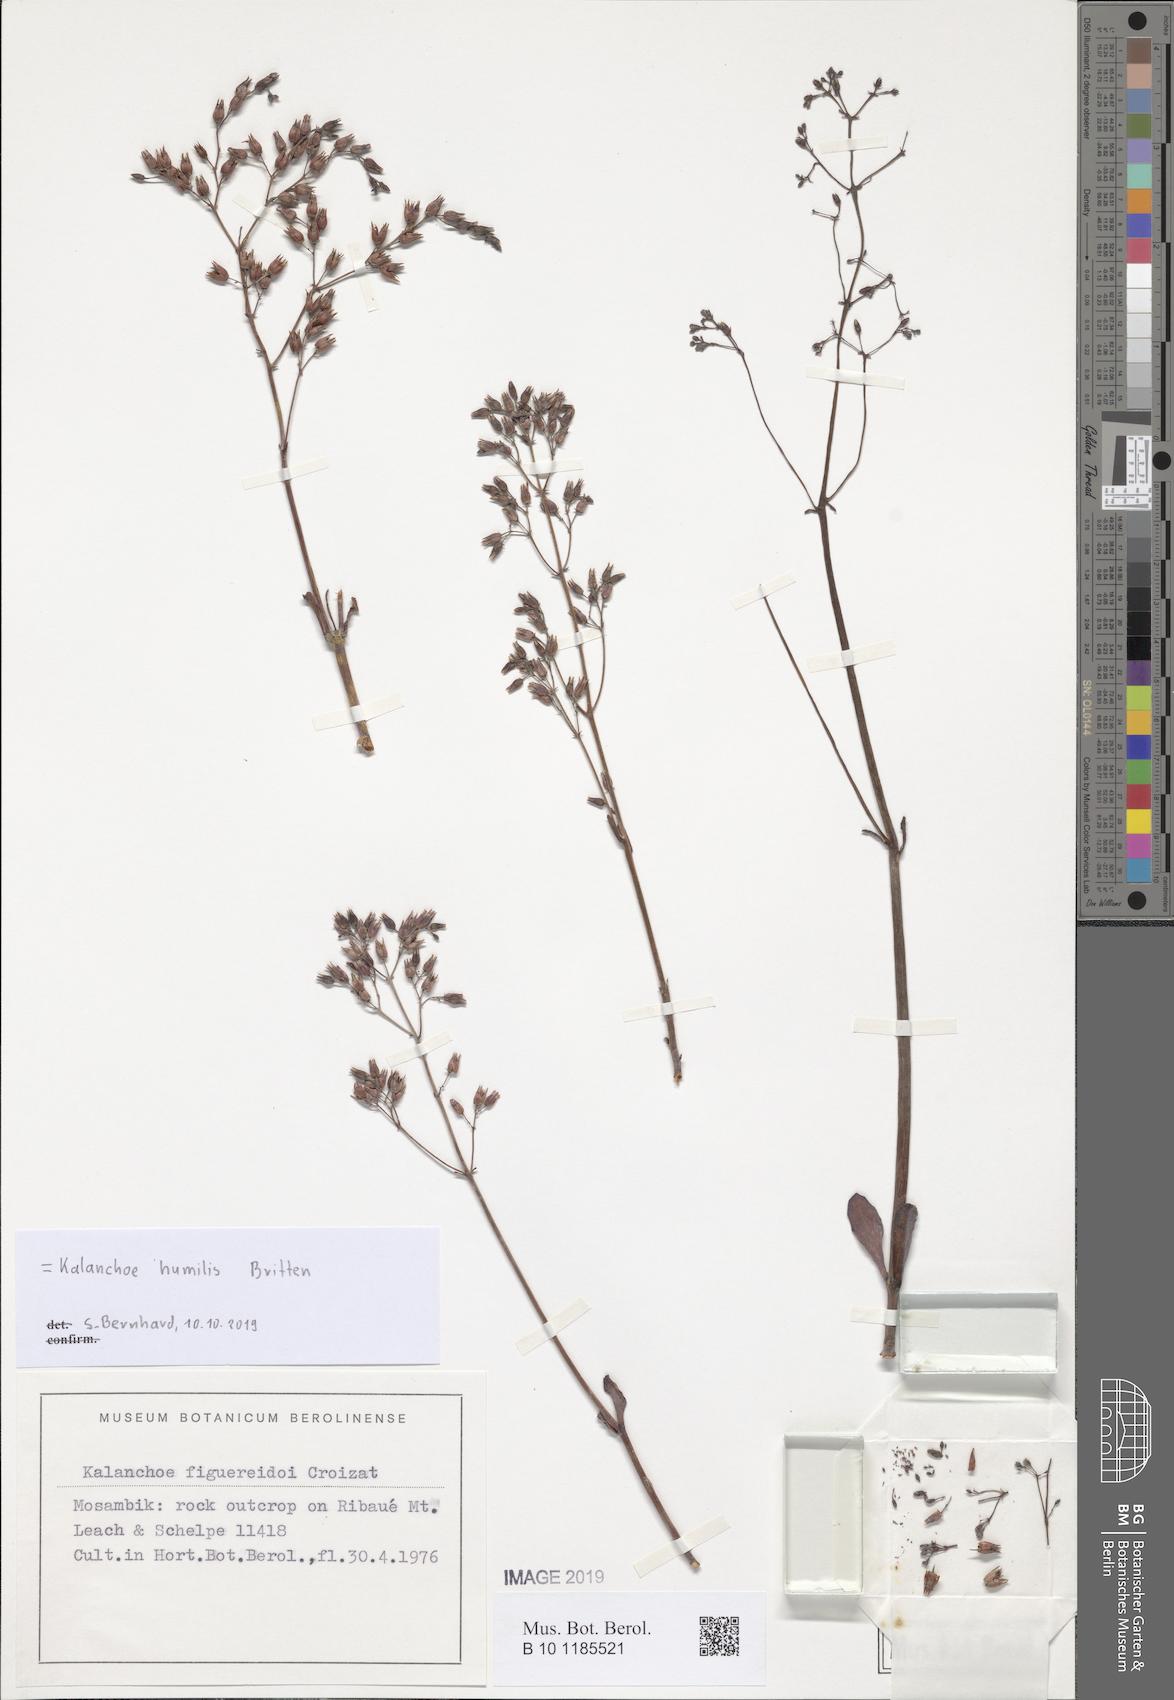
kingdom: Plantae
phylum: Tracheophyta
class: Magnoliopsida
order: Saxifragales
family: Crassulaceae
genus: Kalanchoe
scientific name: Kalanchoe humilis
